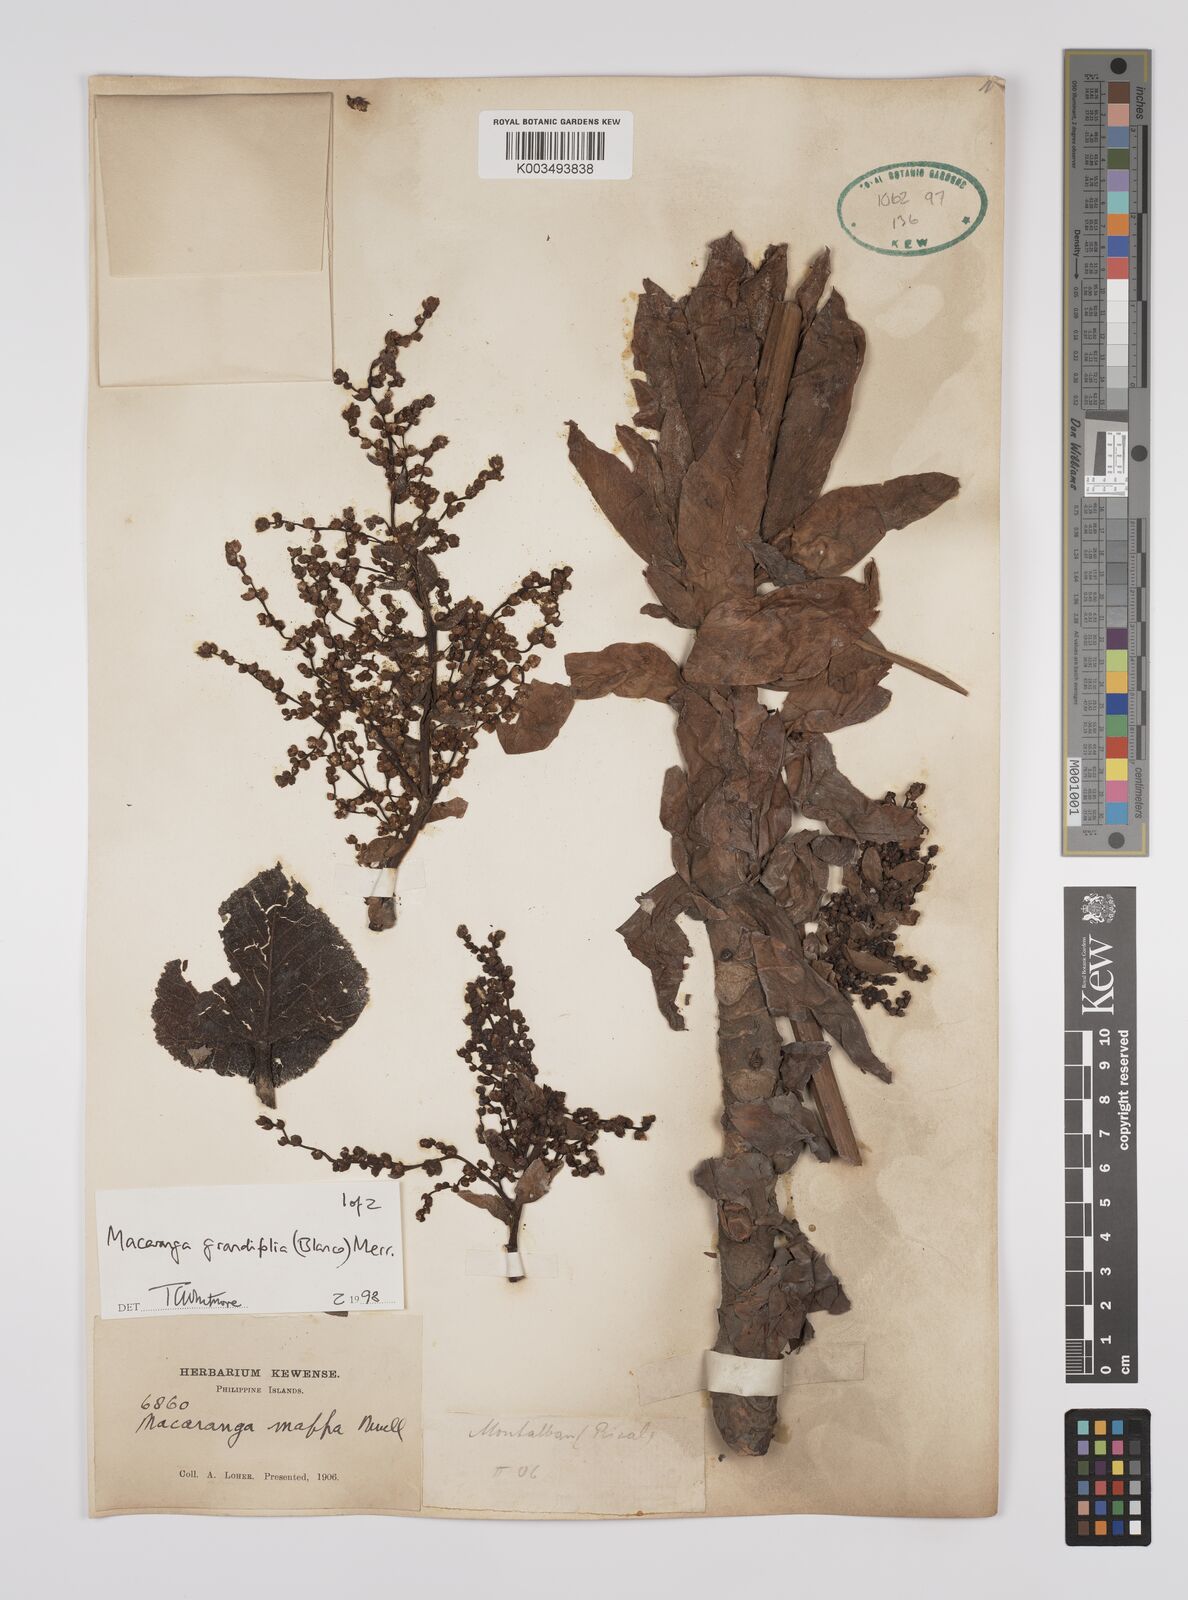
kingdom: Plantae
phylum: Tracheophyta
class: Magnoliopsida
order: Malpighiales
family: Euphorbiaceae
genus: Macaranga
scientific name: Macaranga grandifolia
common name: Coraltree
